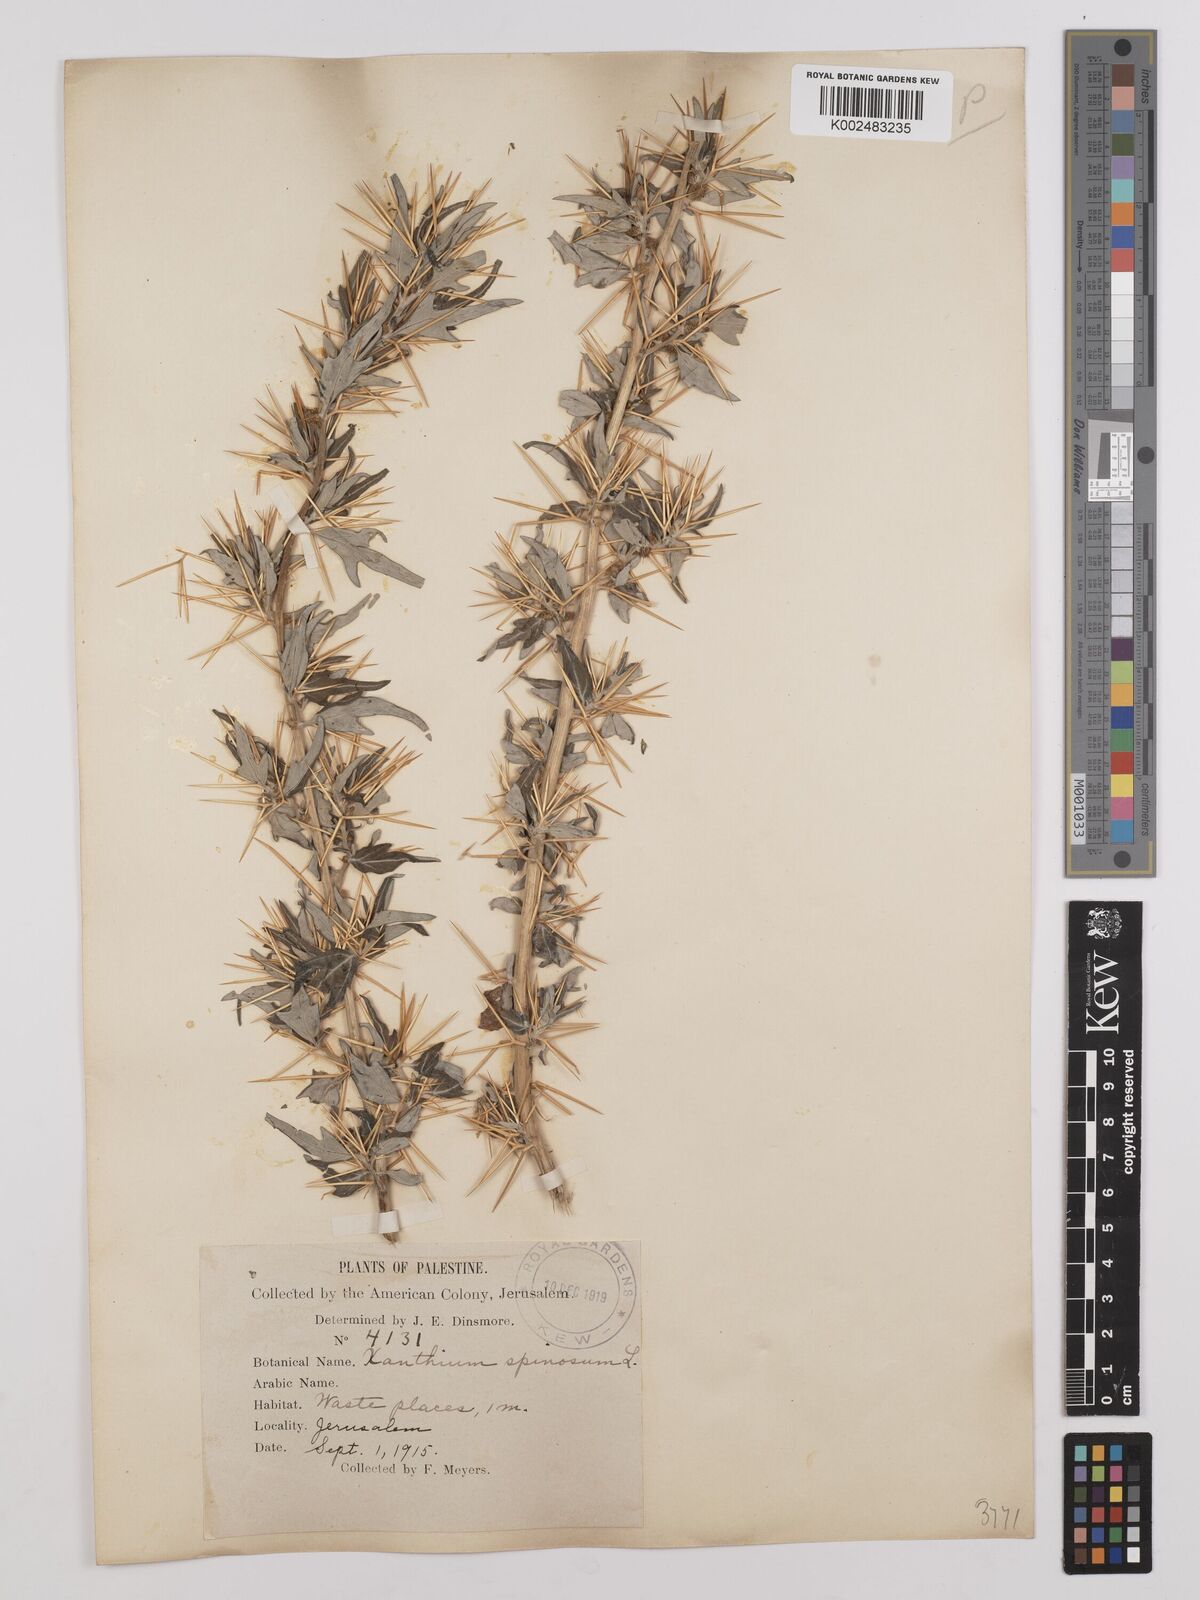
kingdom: Plantae
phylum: Tracheophyta
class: Magnoliopsida
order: Asterales
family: Asteraceae
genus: Xanthium
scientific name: Xanthium spinosum
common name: Spiny cocklebur
